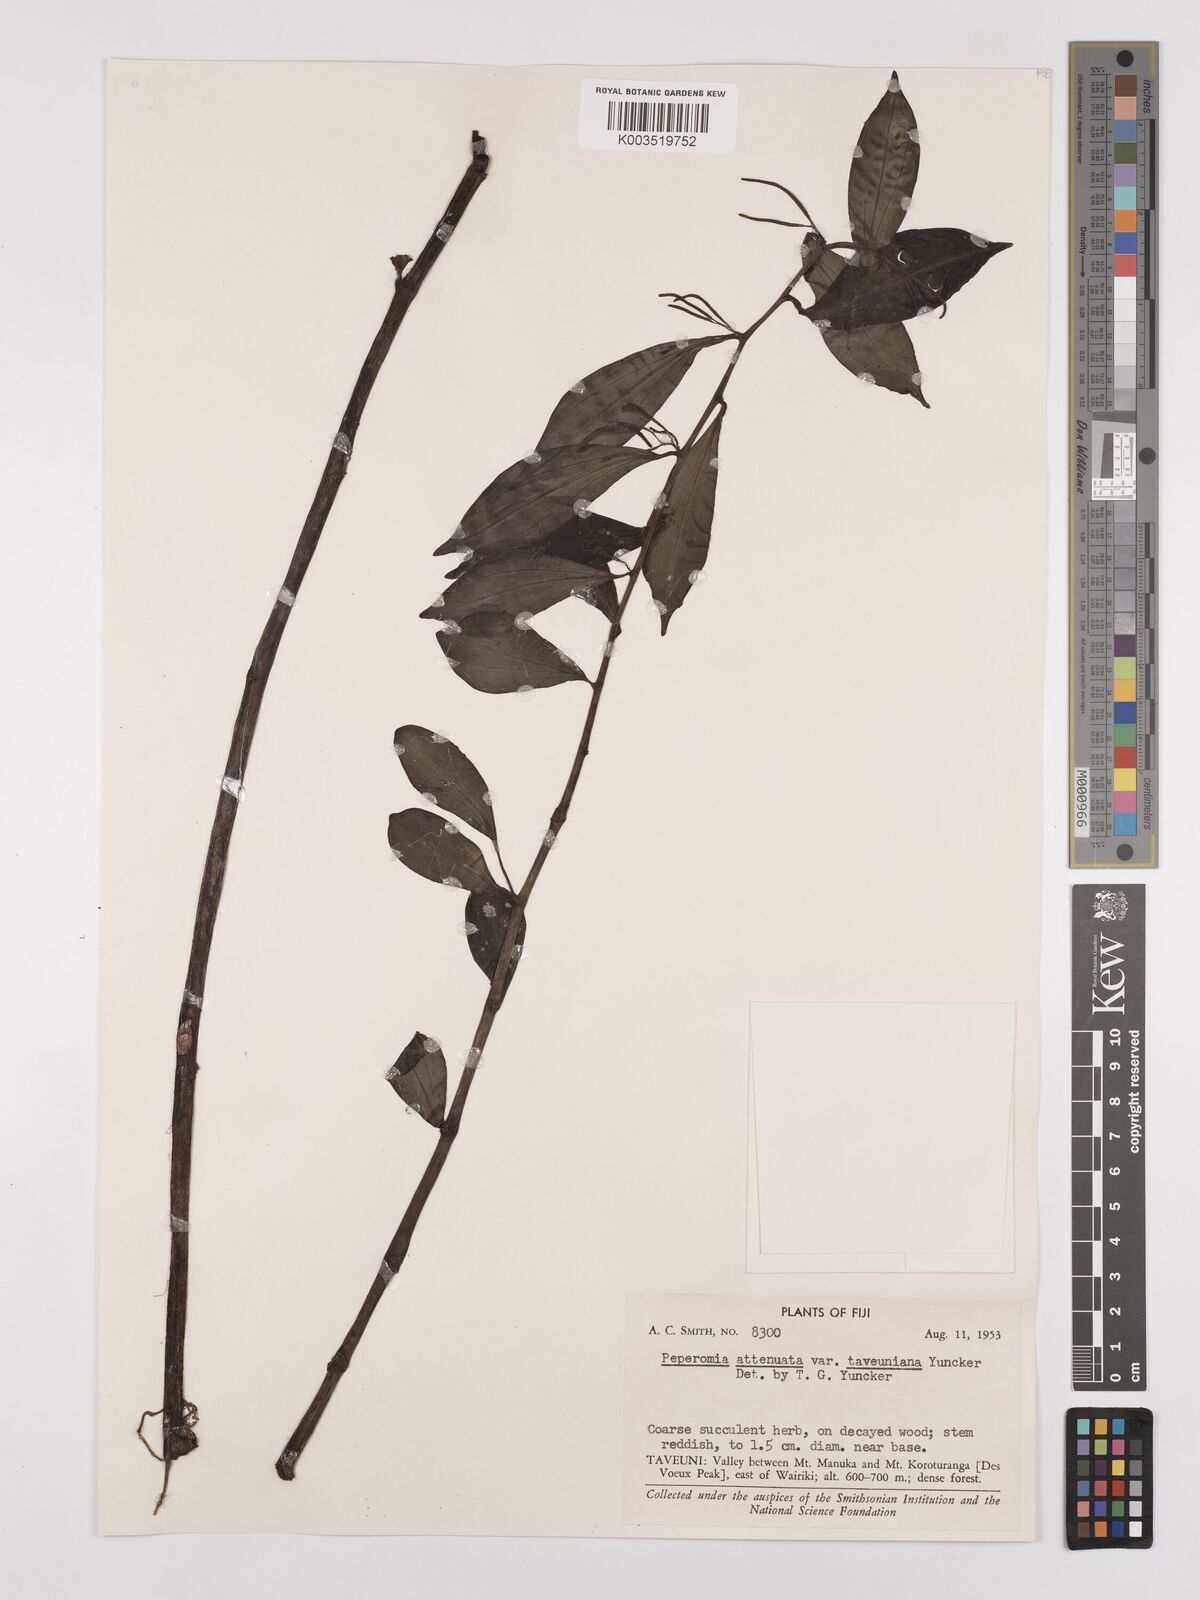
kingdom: Plantae
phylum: Tracheophyta
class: Magnoliopsida
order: Piperales
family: Piperaceae
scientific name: Piperaceae
